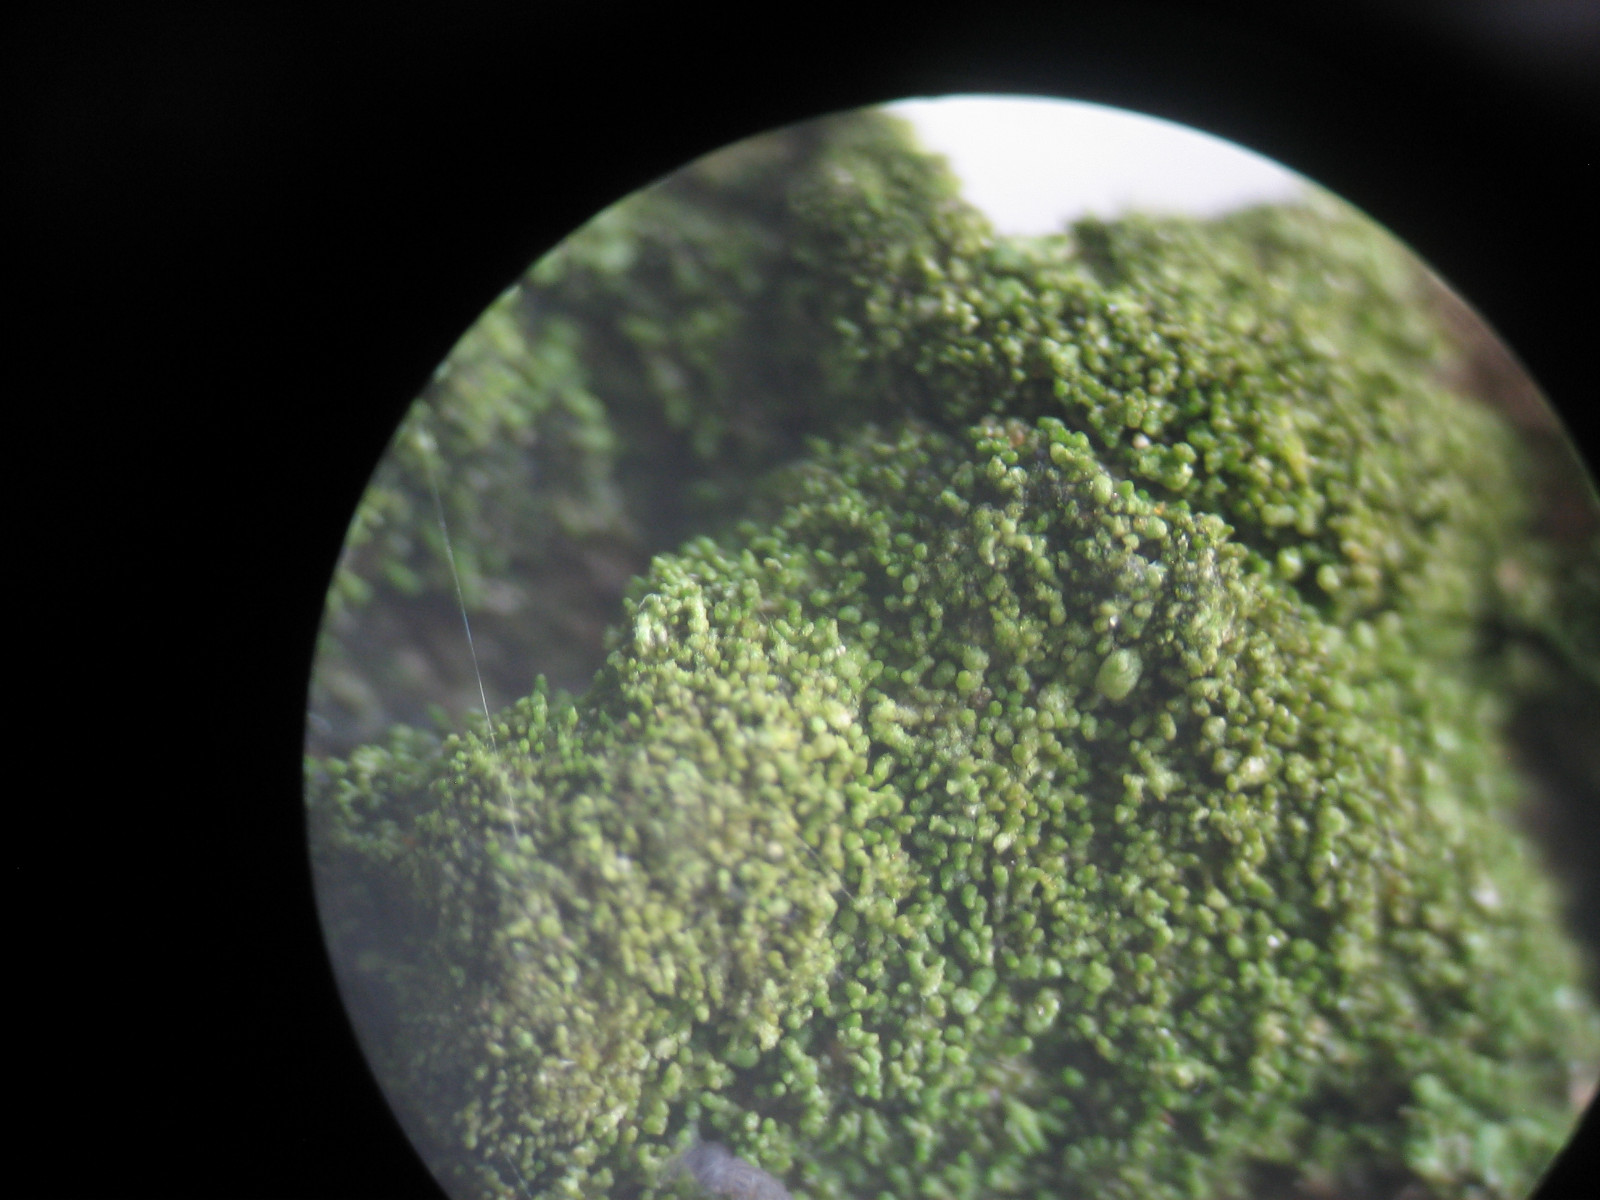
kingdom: Fungi
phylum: Ascomycota
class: Lecanoromycetes
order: Lecanorales
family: Parmeliaceae
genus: Melanelixia
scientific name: Melanelixia subaurifera
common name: guldpudret skållav
